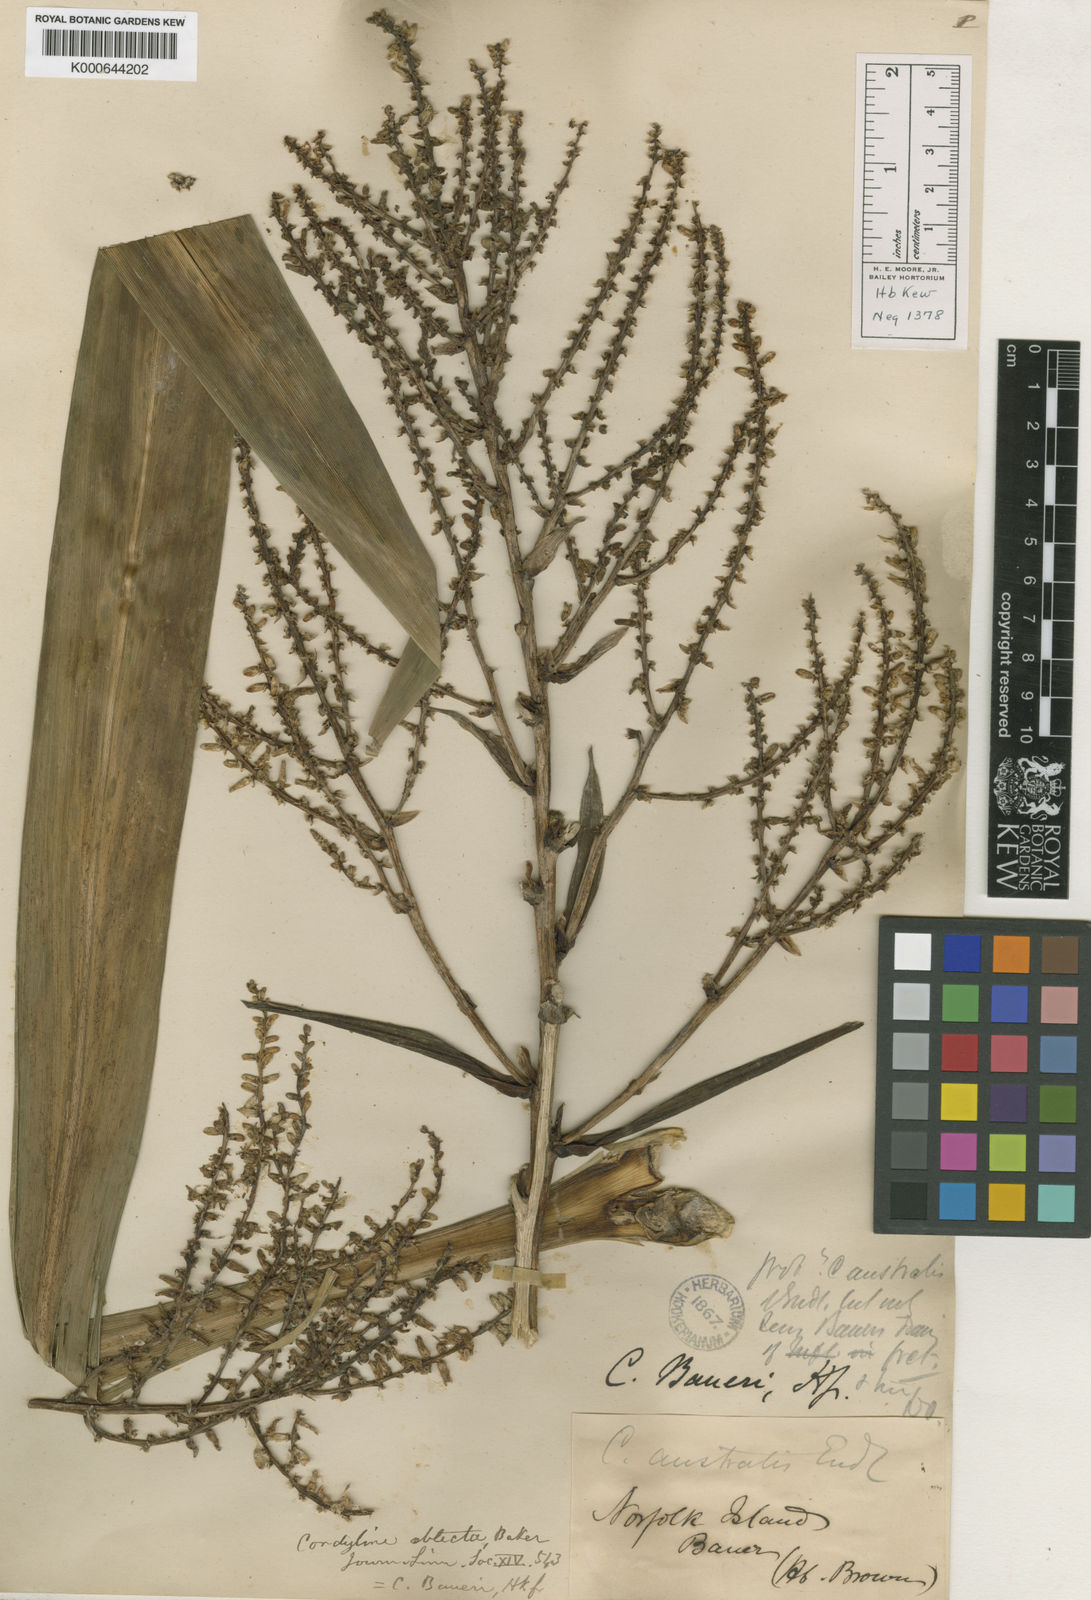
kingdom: Plantae
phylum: Tracheophyta
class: Liliopsida
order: Asparagales
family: Asparagaceae
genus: Cordyline
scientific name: Cordyline obtecta
